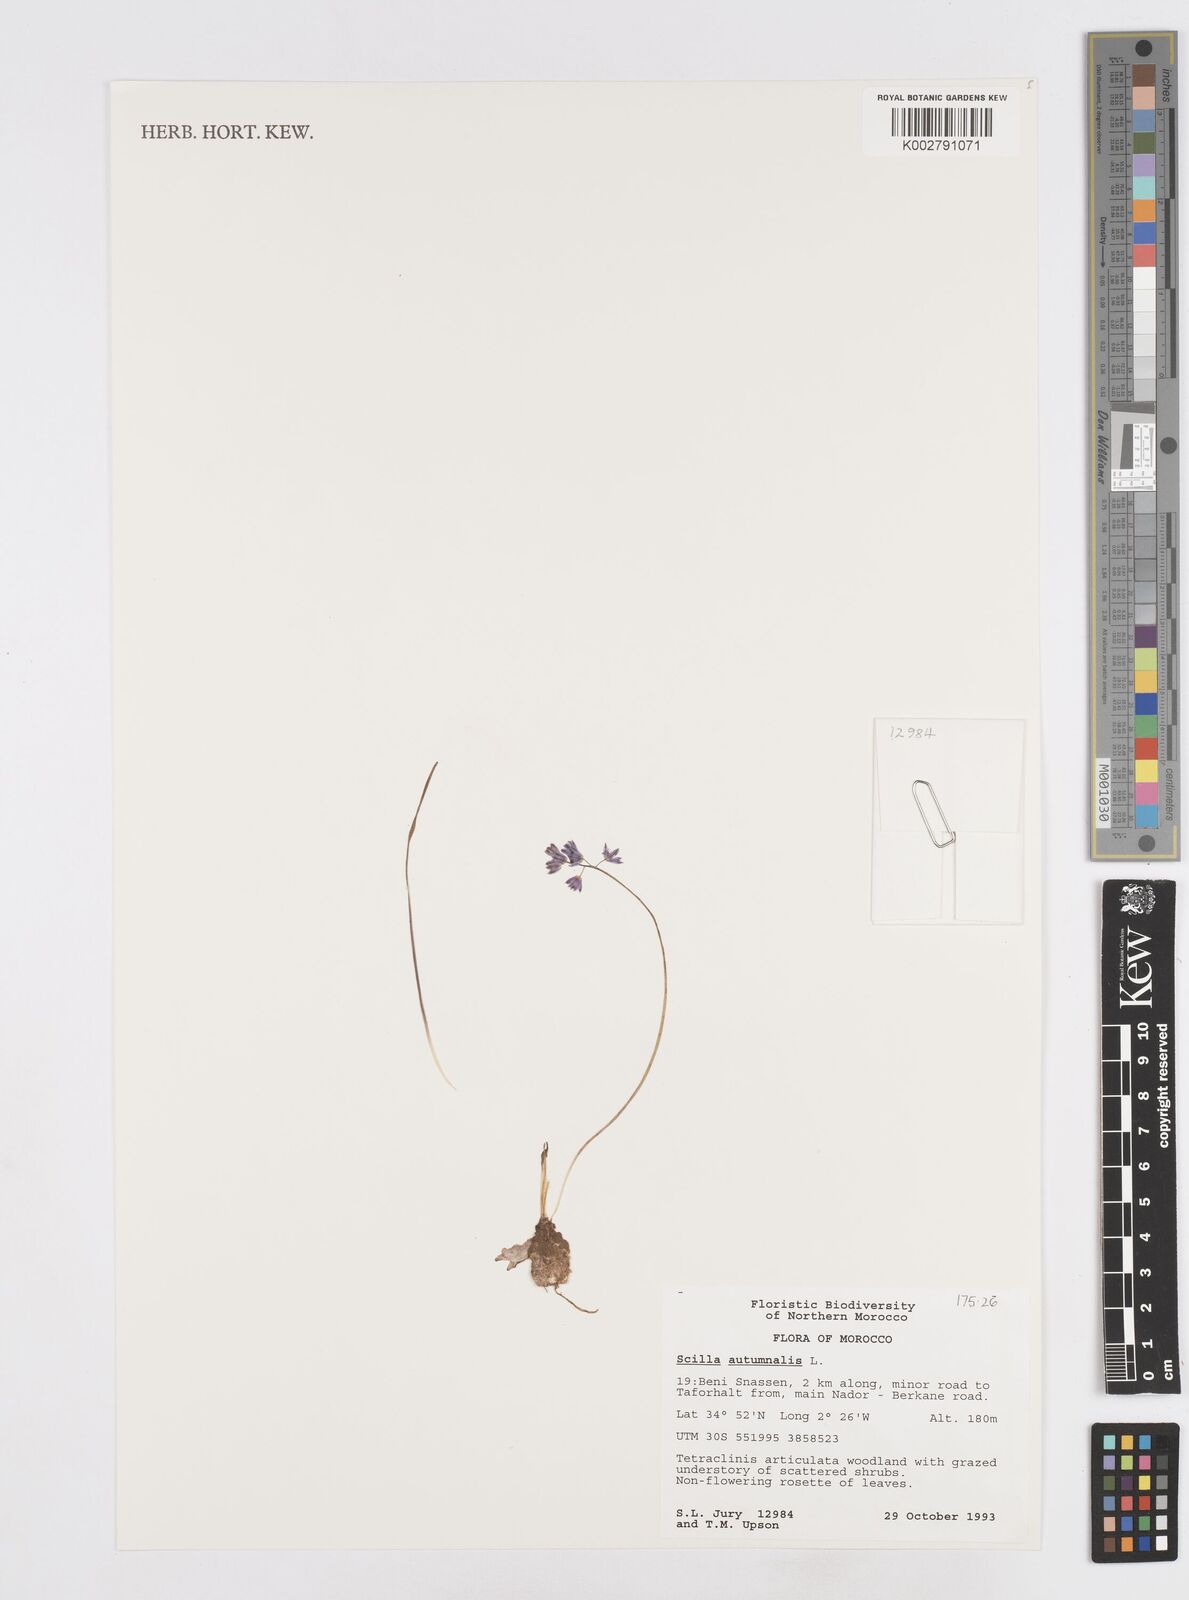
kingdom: Plantae
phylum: Tracheophyta
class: Liliopsida
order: Asparagales
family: Asparagaceae
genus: Prospero
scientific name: Prospero autumnale
